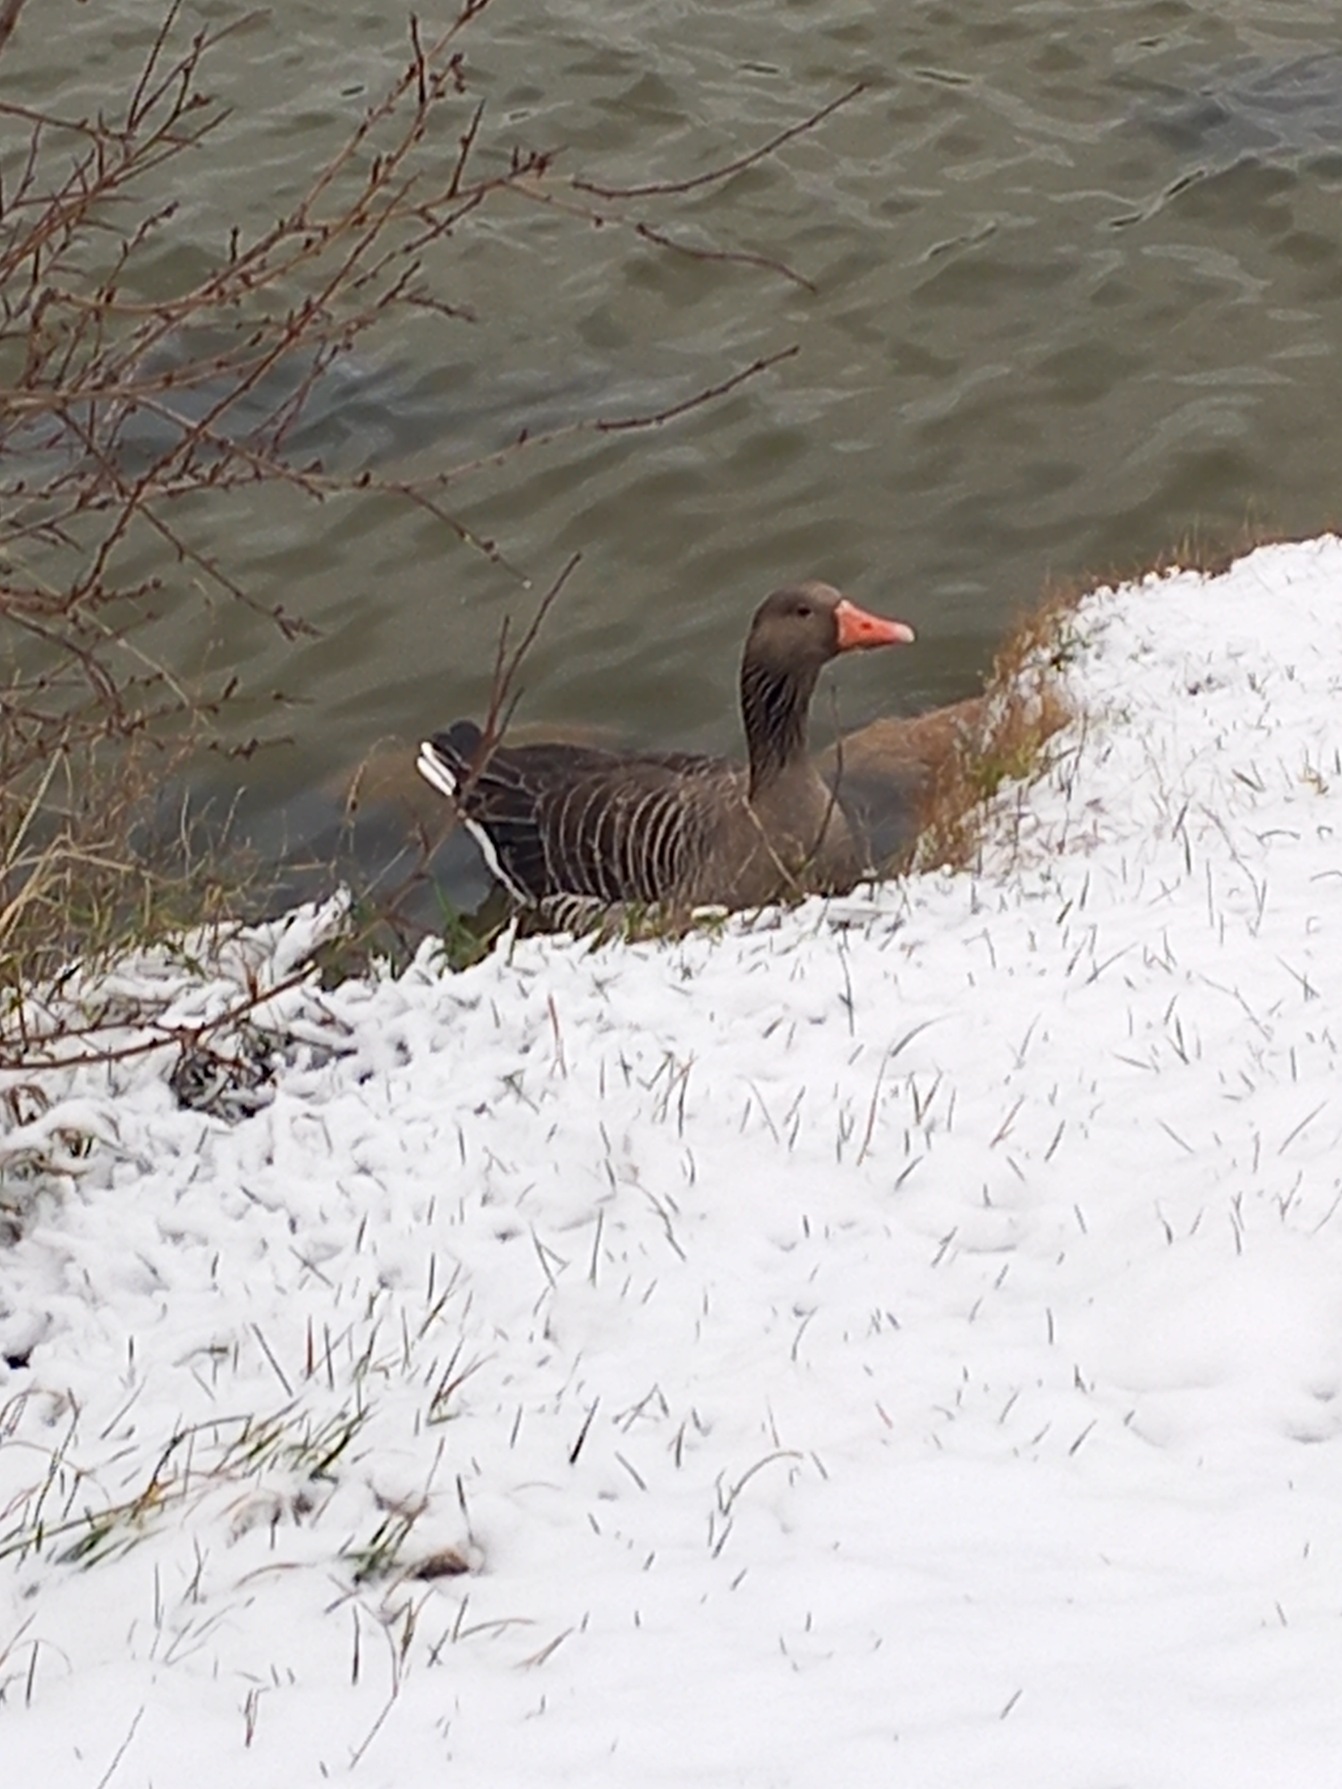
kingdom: Animalia
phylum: Chordata
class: Aves
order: Anseriformes
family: Anatidae
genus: Anser
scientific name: Anser anser
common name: Grågås
